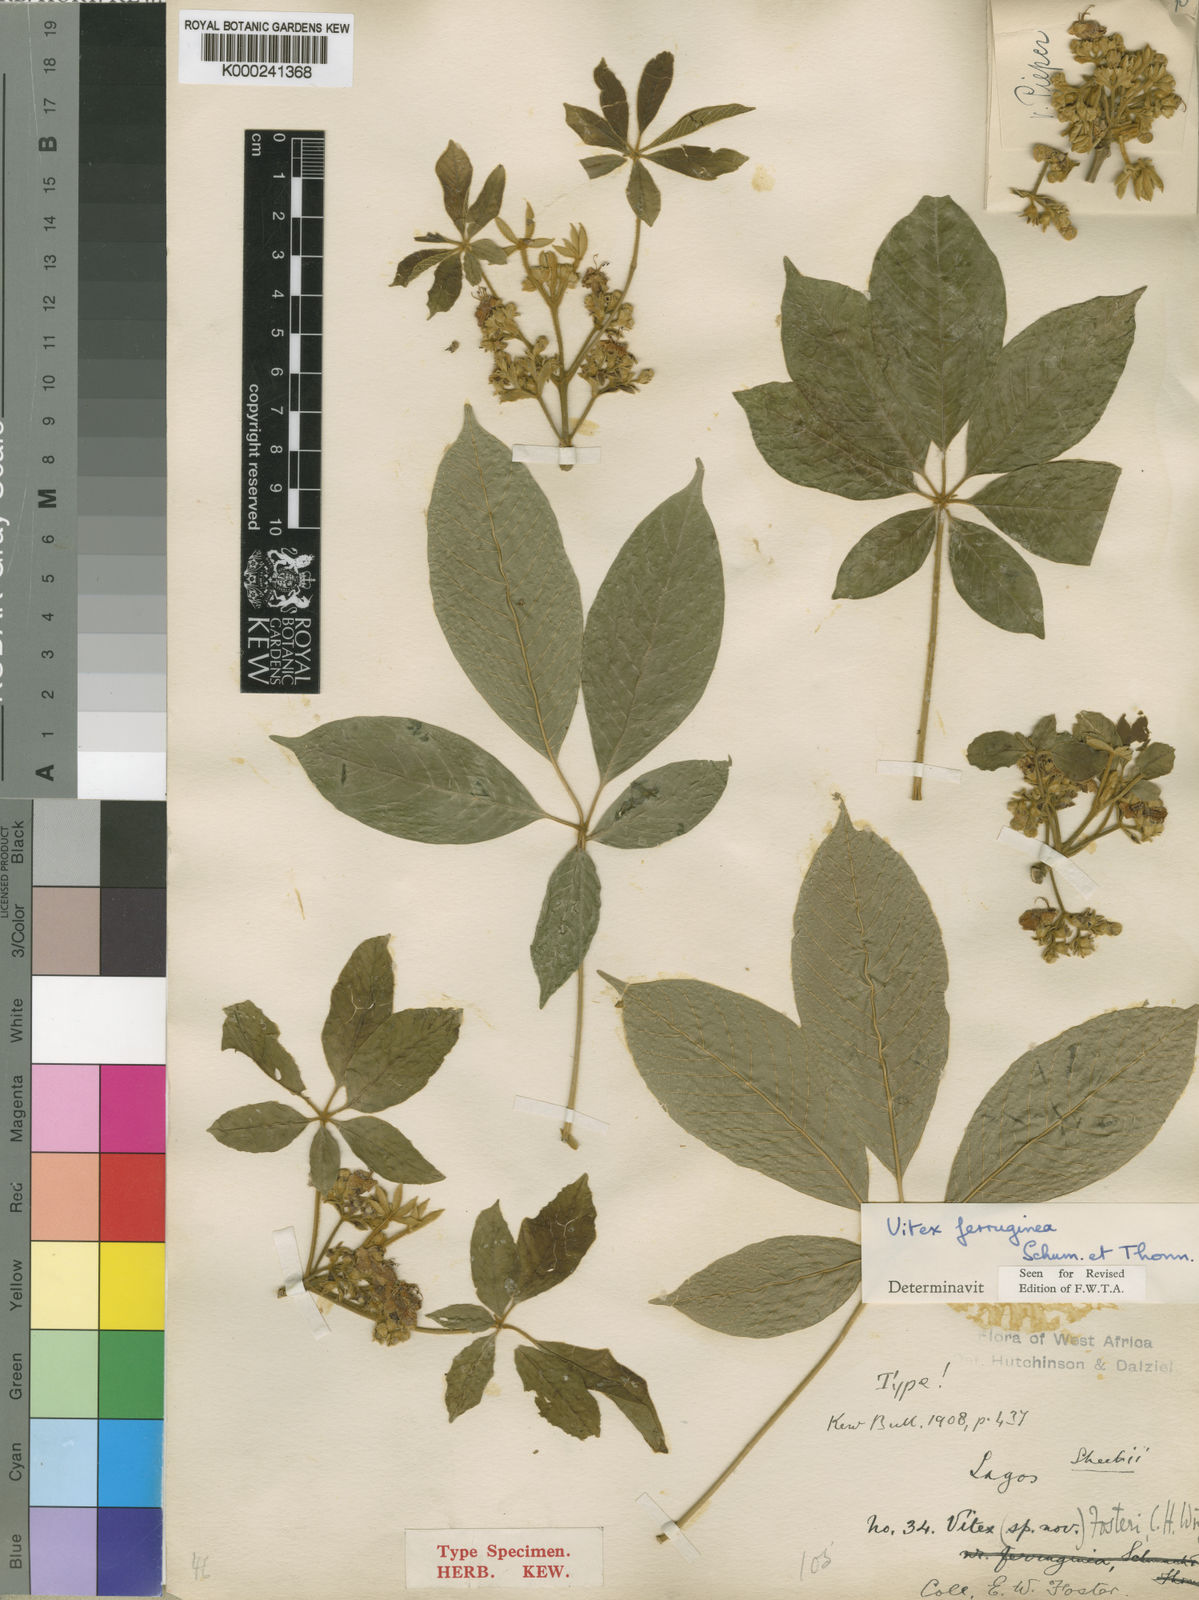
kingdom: Plantae
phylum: Tracheophyta
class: Magnoliopsida
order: Lamiales
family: Lamiaceae
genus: Vitex
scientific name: Vitex ferruginea
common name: Plum fingerleaf
